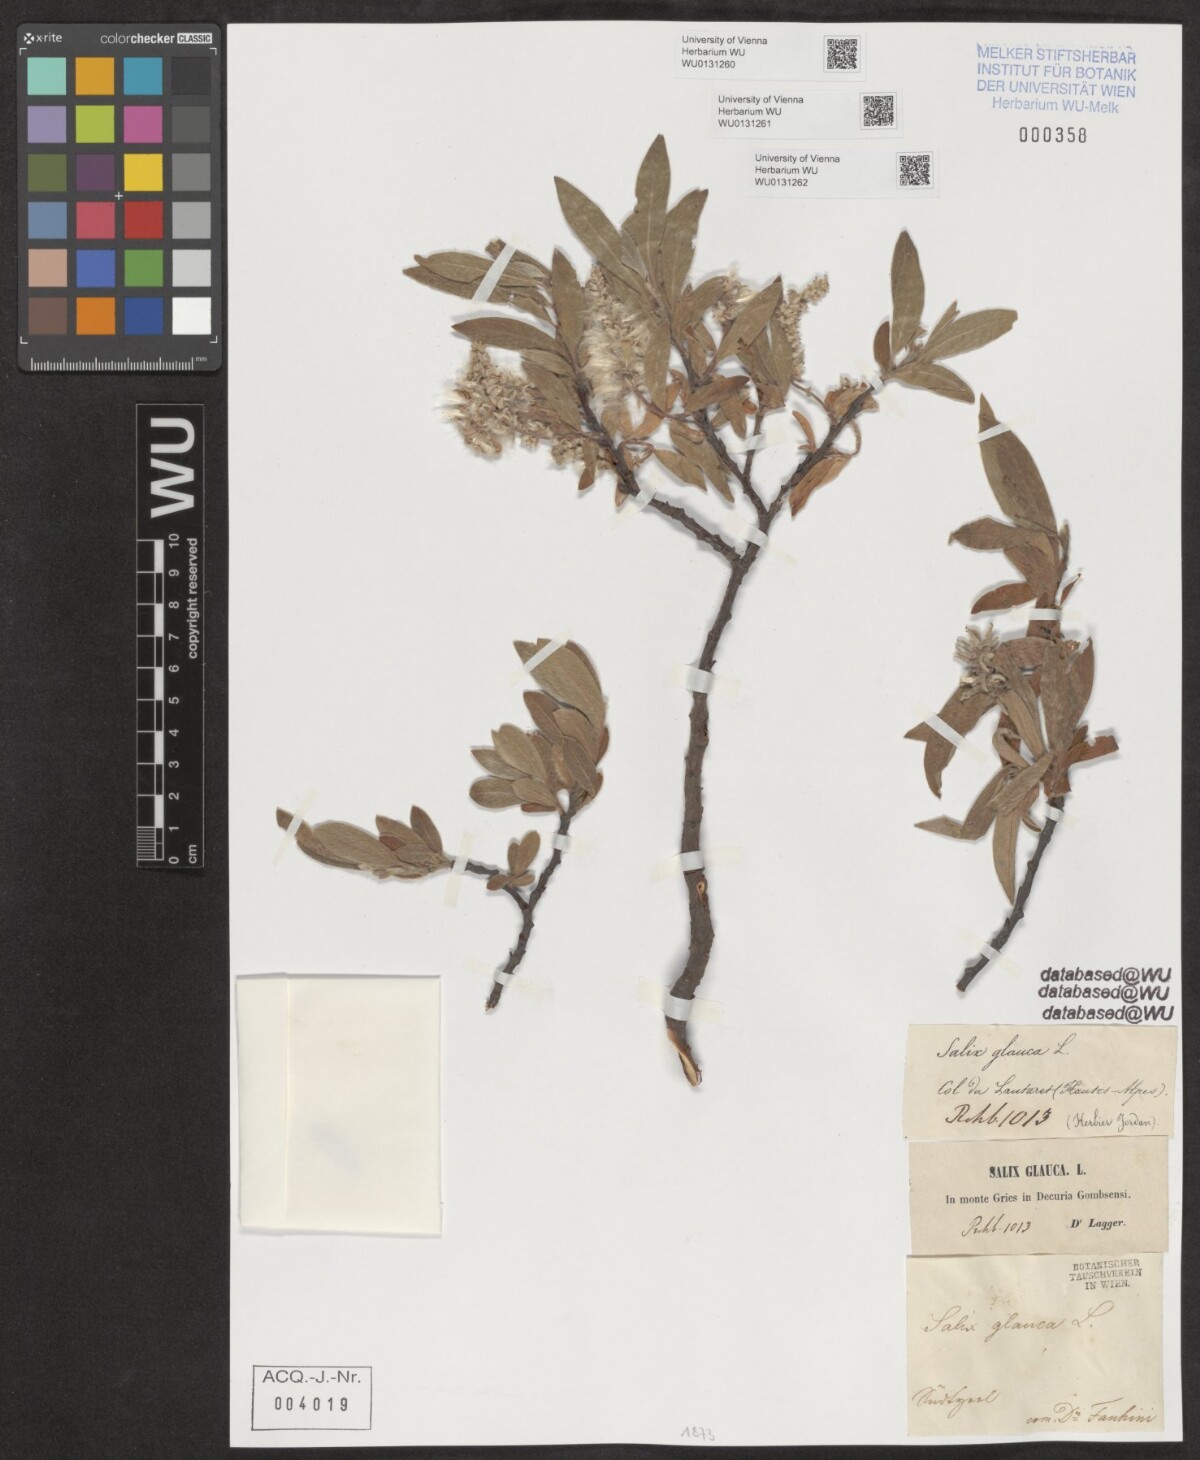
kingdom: Plantae
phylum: Tracheophyta
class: Magnoliopsida
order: Malpighiales
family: Salicaceae
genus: Salix
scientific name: Salix glauca
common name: Glaucous willow
